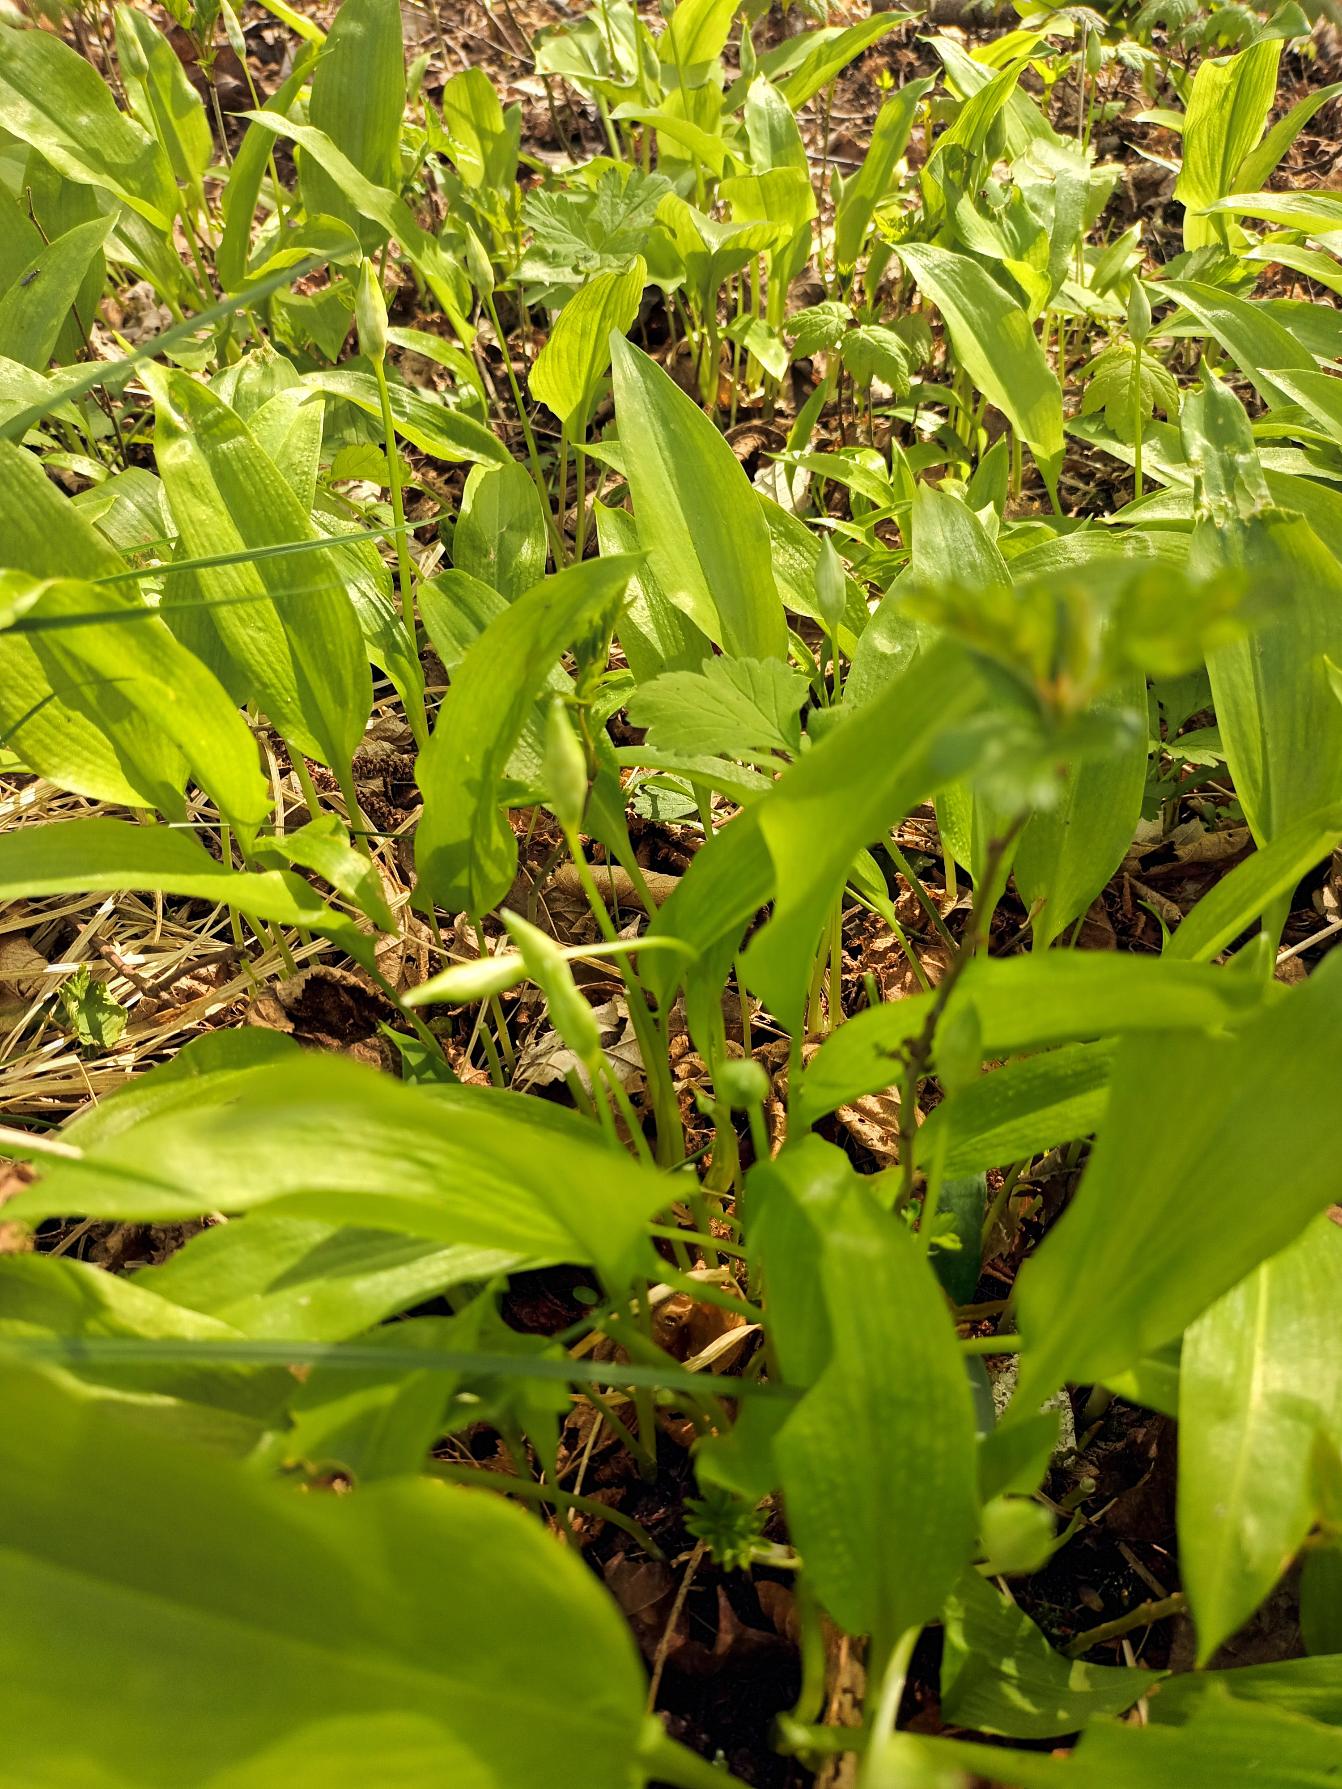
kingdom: Plantae
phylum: Tracheophyta
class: Liliopsida
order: Asparagales
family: Amaryllidaceae
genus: Allium
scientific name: Allium ursinum
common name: Rams-løg
